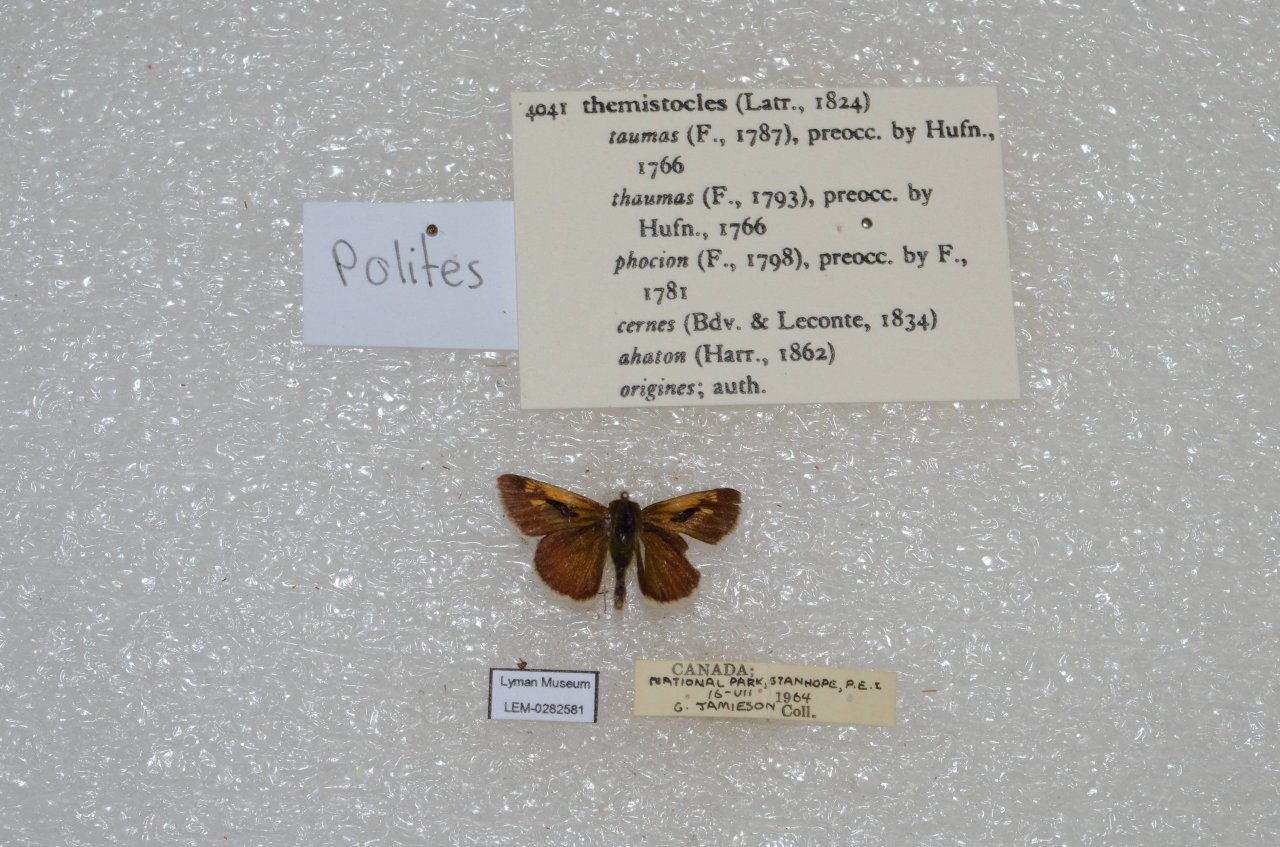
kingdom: Animalia
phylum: Arthropoda
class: Insecta
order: Lepidoptera
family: Hesperiidae
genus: Polites
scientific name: Polites themistocles
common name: Tawny-edged Skipper
